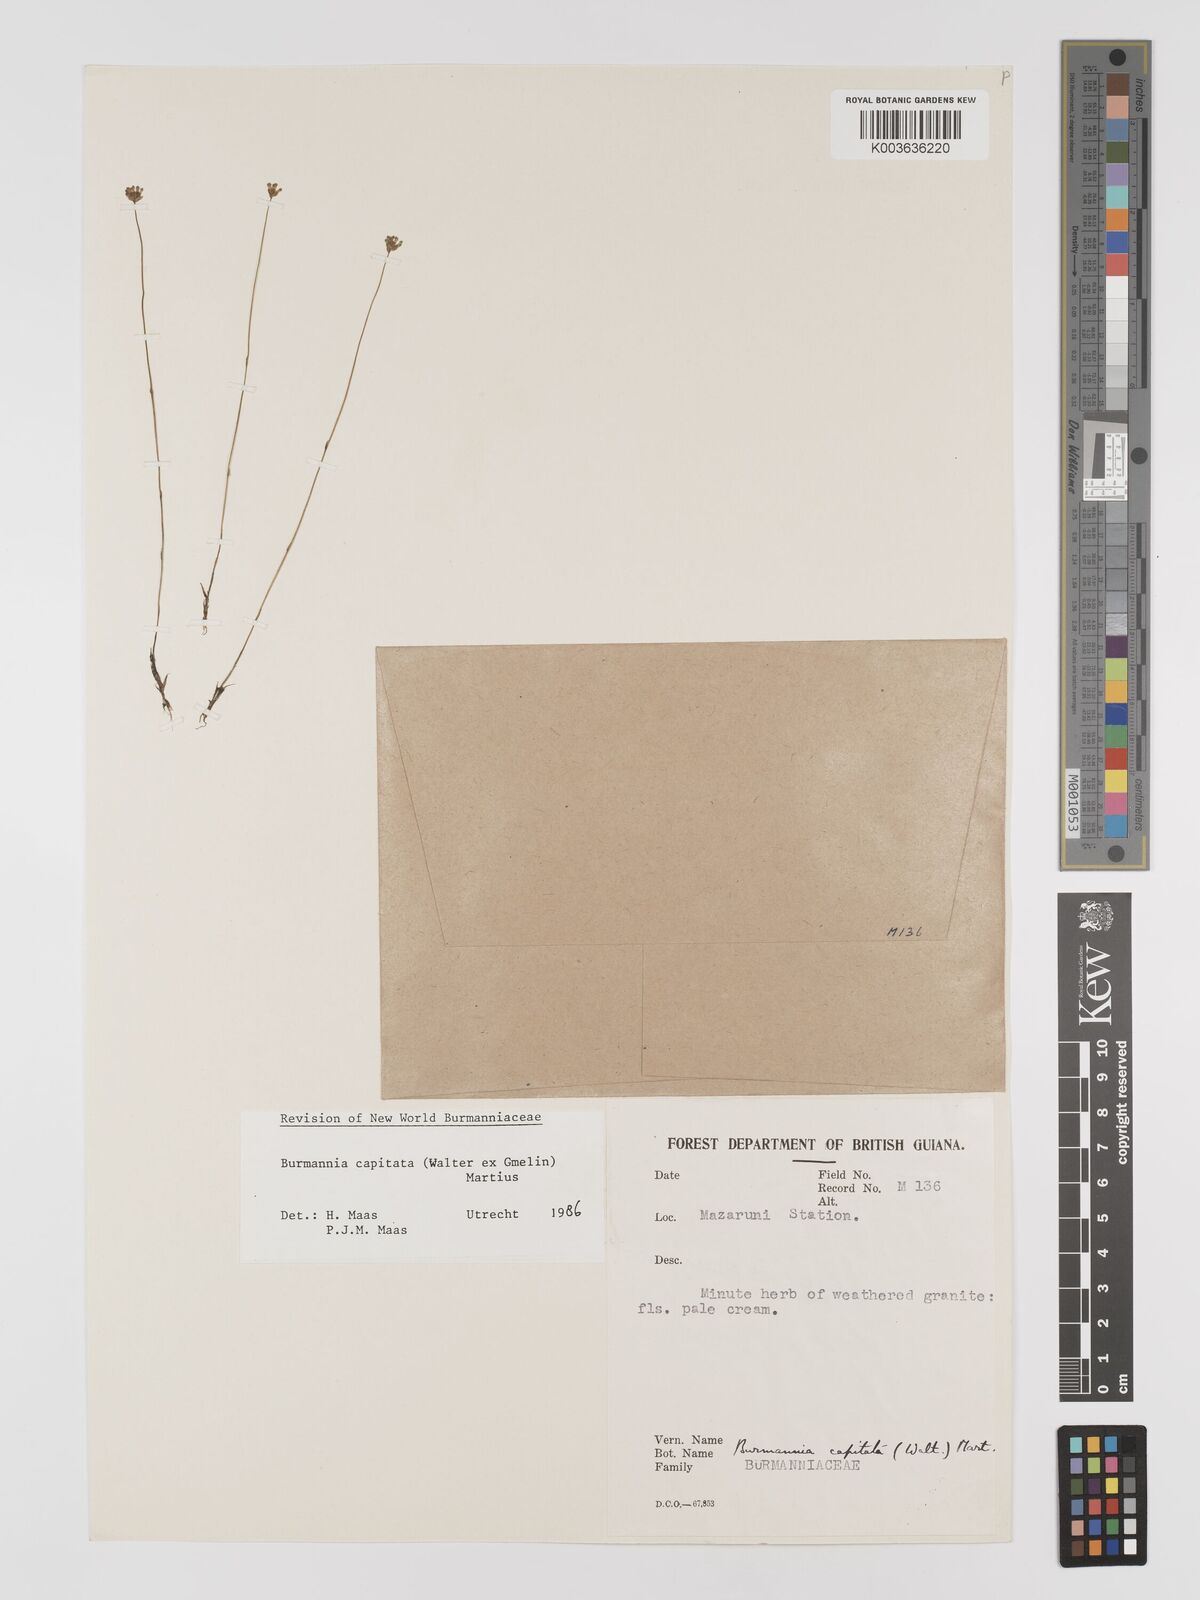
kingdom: Plantae
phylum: Tracheophyta
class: Liliopsida
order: Dioscoreales
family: Burmanniaceae
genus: Burmannia
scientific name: Burmannia capitata
